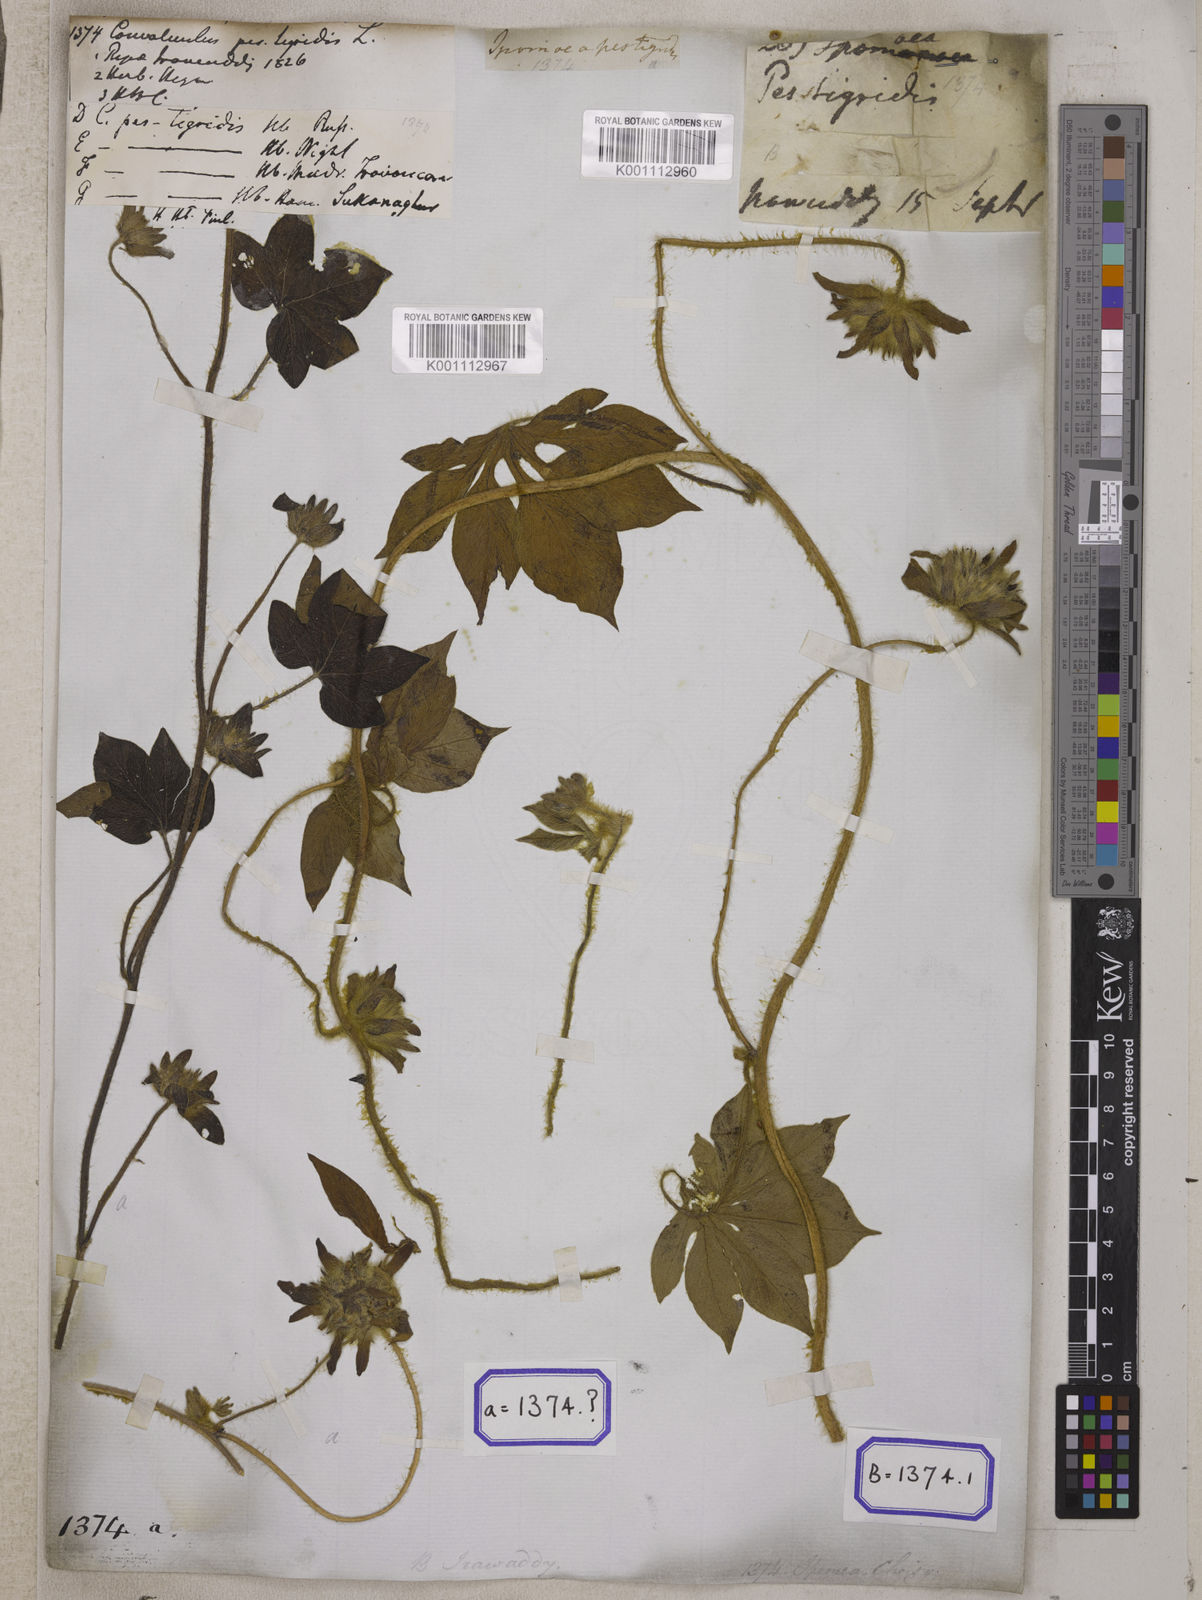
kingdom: Plantae
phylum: Tracheophyta
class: Magnoliopsida
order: Solanales
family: Convolvulaceae
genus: Ipomoea
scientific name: Ipomoea pes-tigridis
